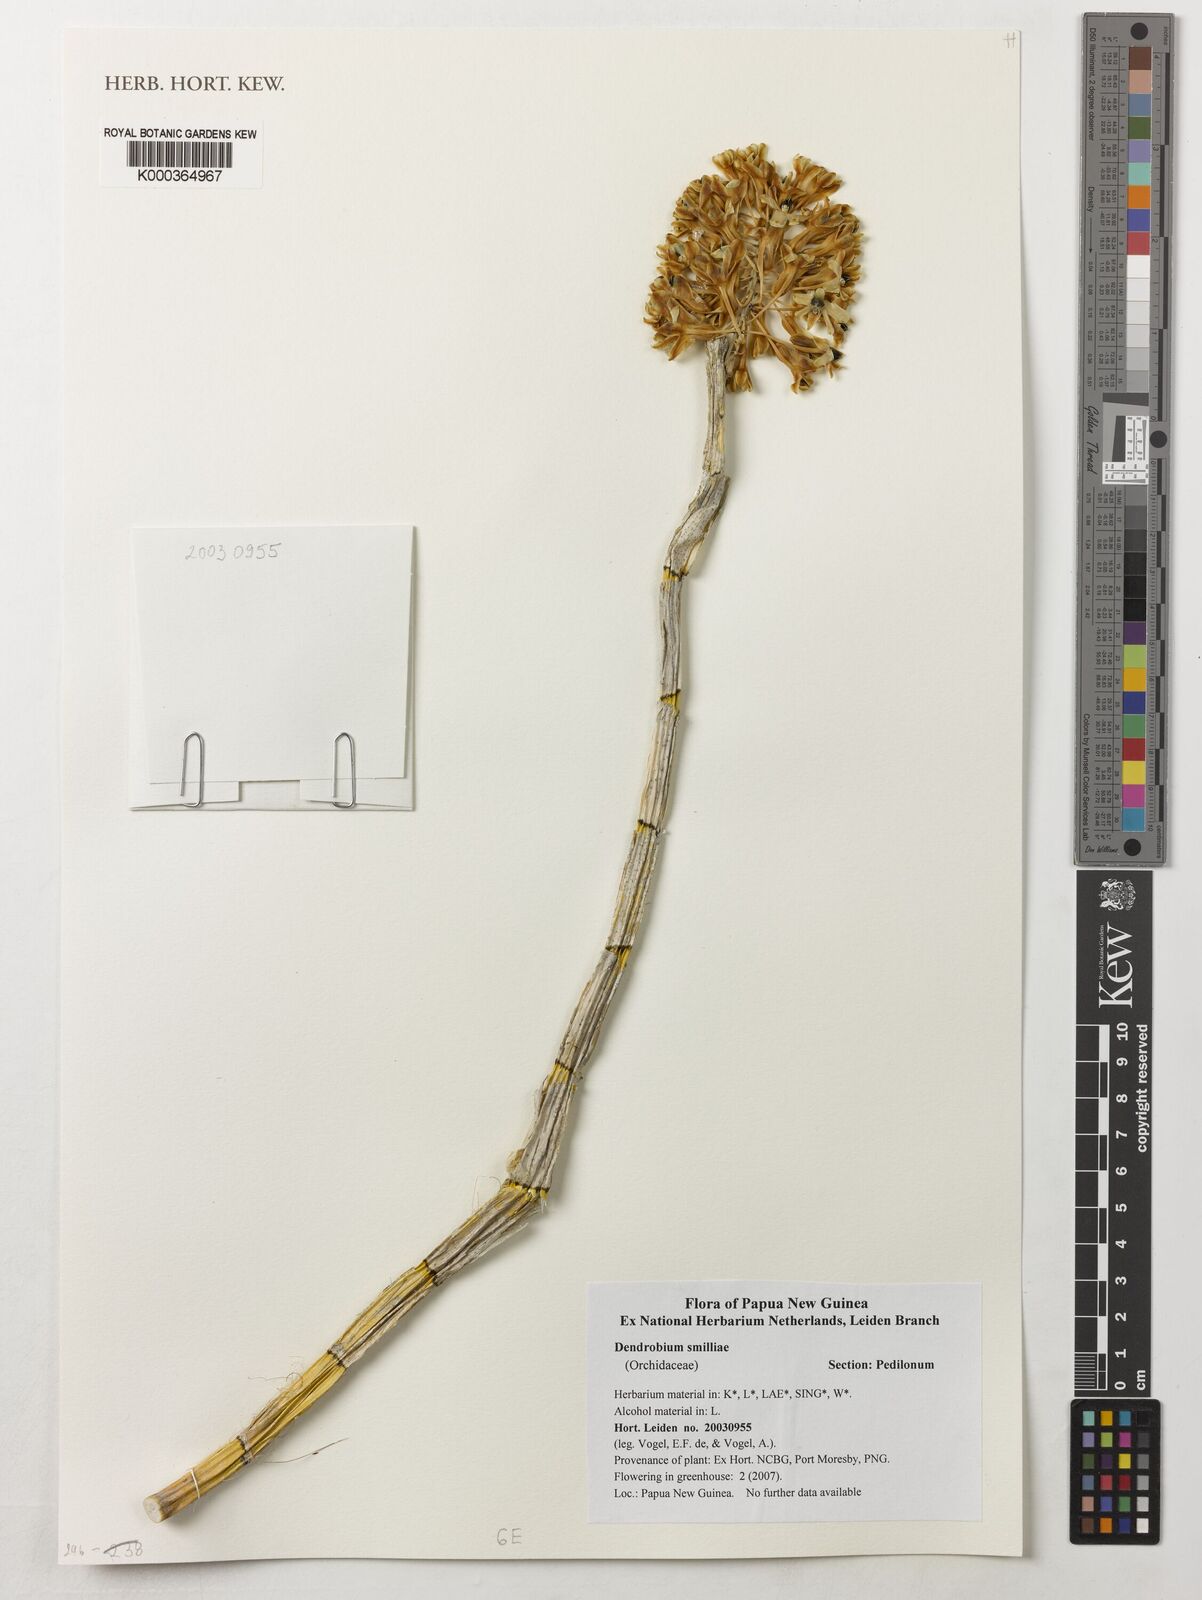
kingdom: Plantae
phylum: Tracheophyta
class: Liliopsida
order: Asparagales
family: Orchidaceae
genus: Dendrobium
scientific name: Dendrobium
